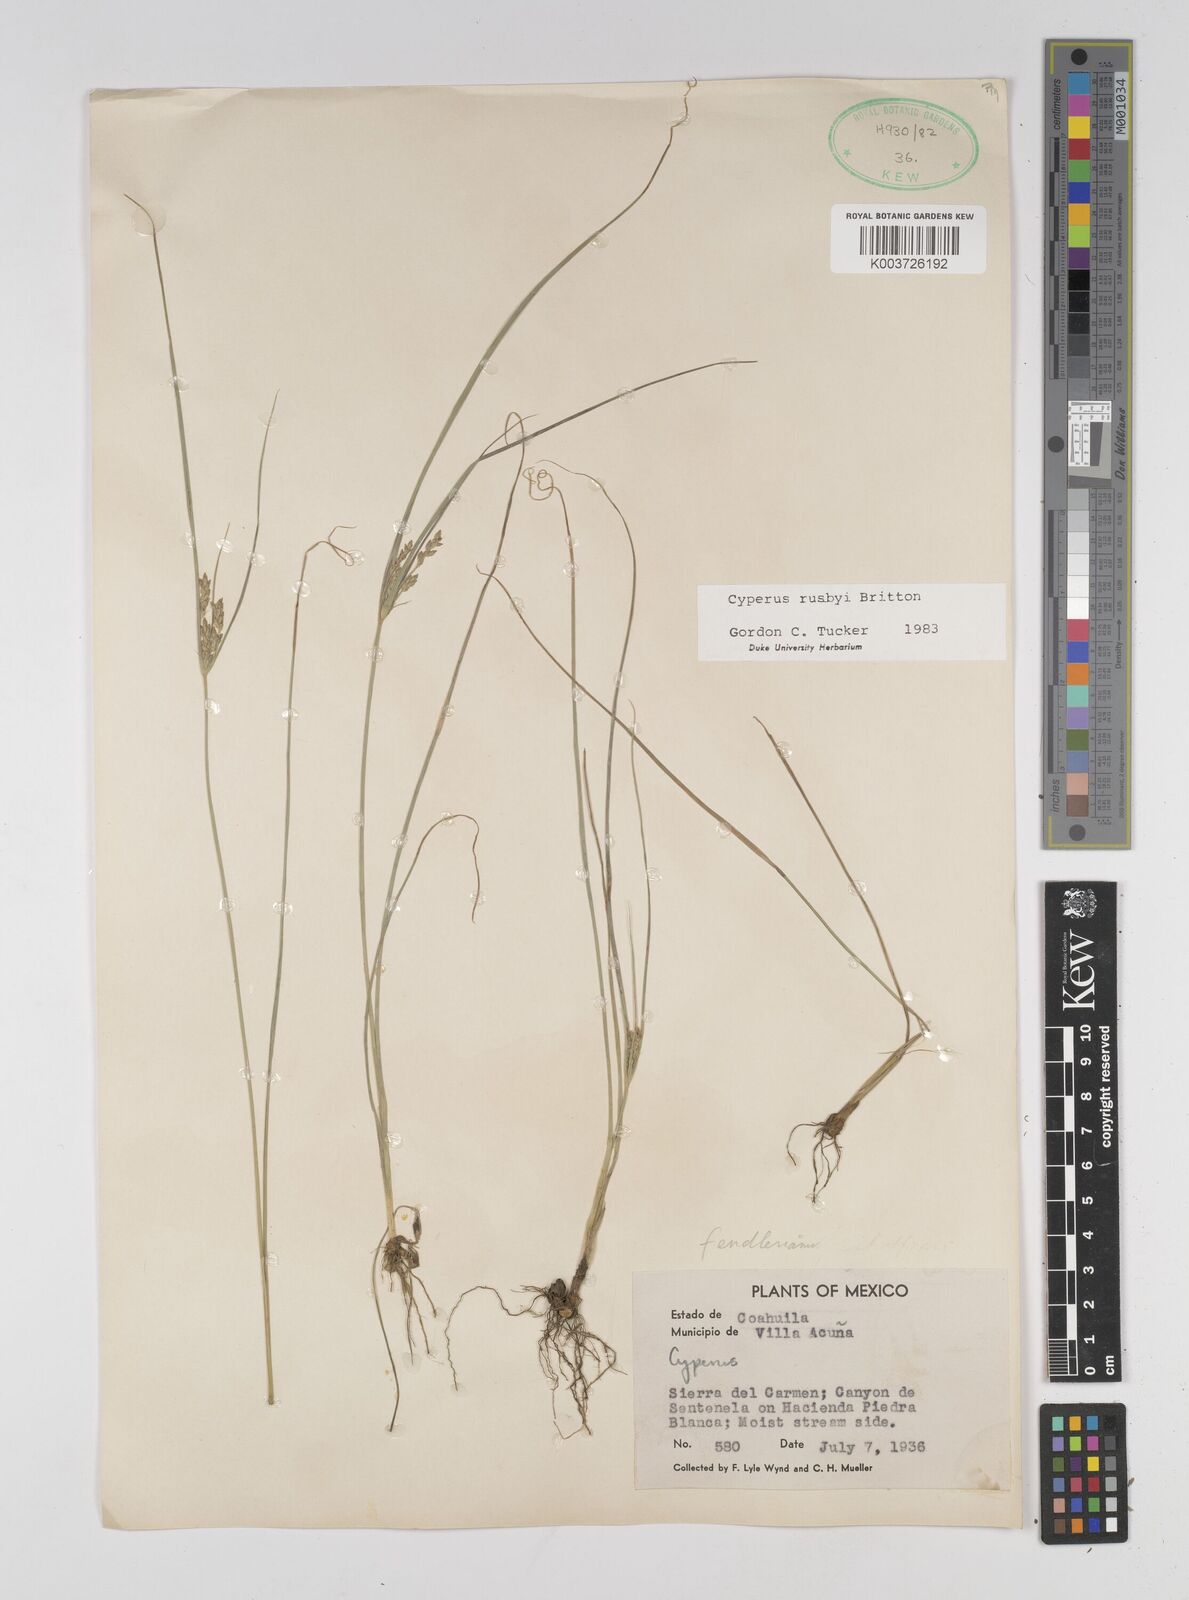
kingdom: Plantae
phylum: Tracheophyta
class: Liliopsida
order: Poales
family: Cyperaceae
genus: Cyperus
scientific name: Cyperus sphaerolepis
